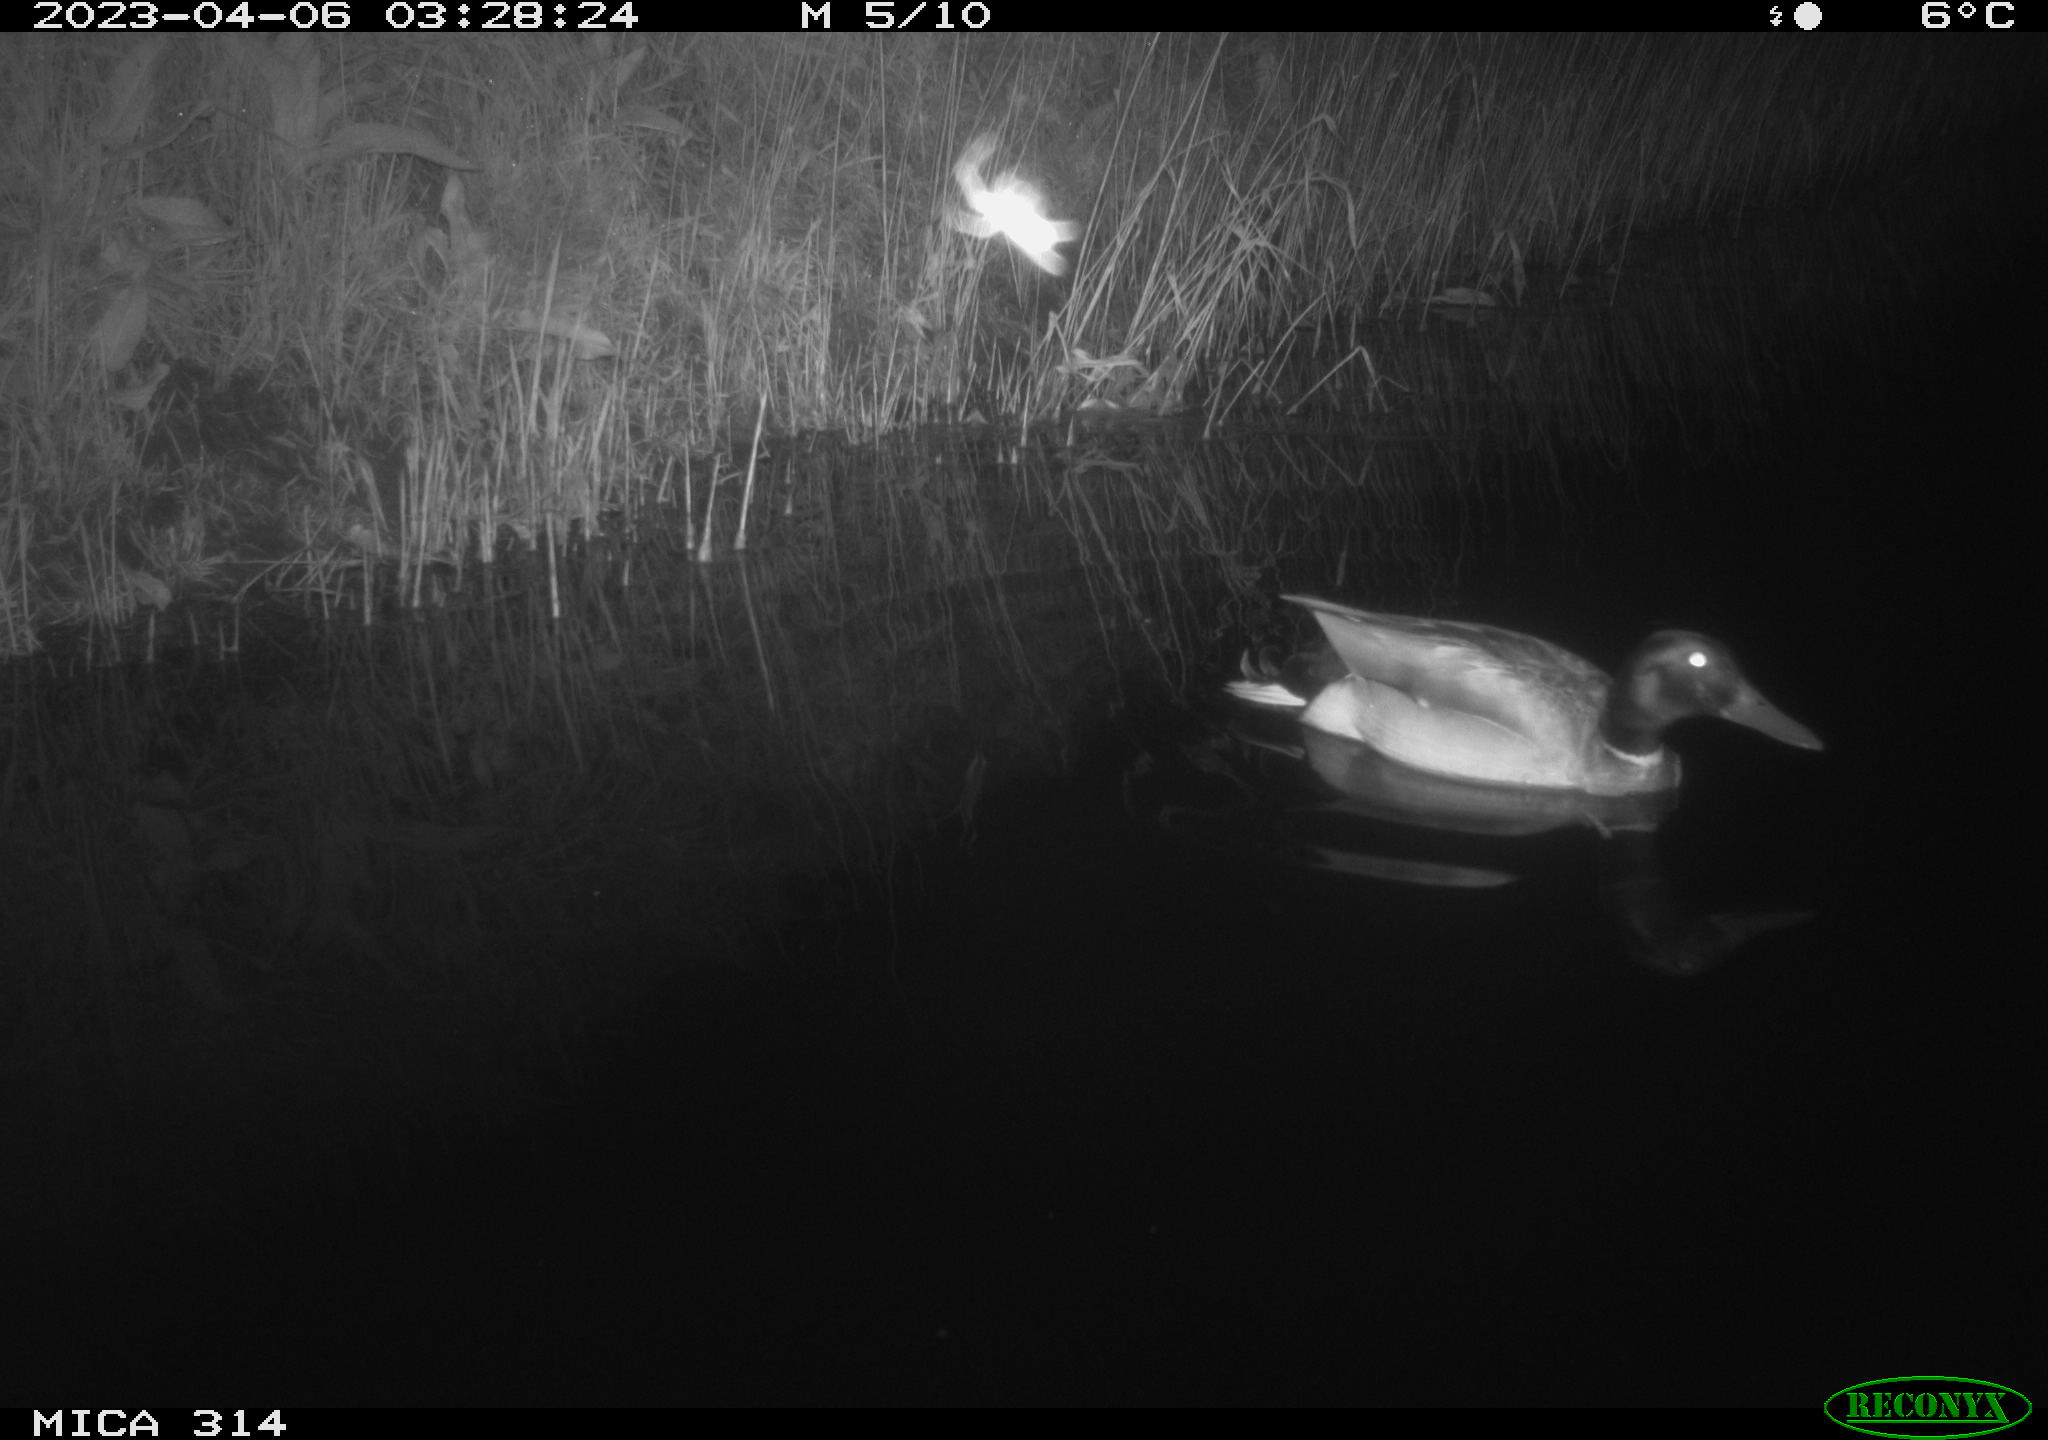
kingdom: Animalia
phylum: Chordata
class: Aves
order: Anseriformes
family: Anatidae
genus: Anas
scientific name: Anas
